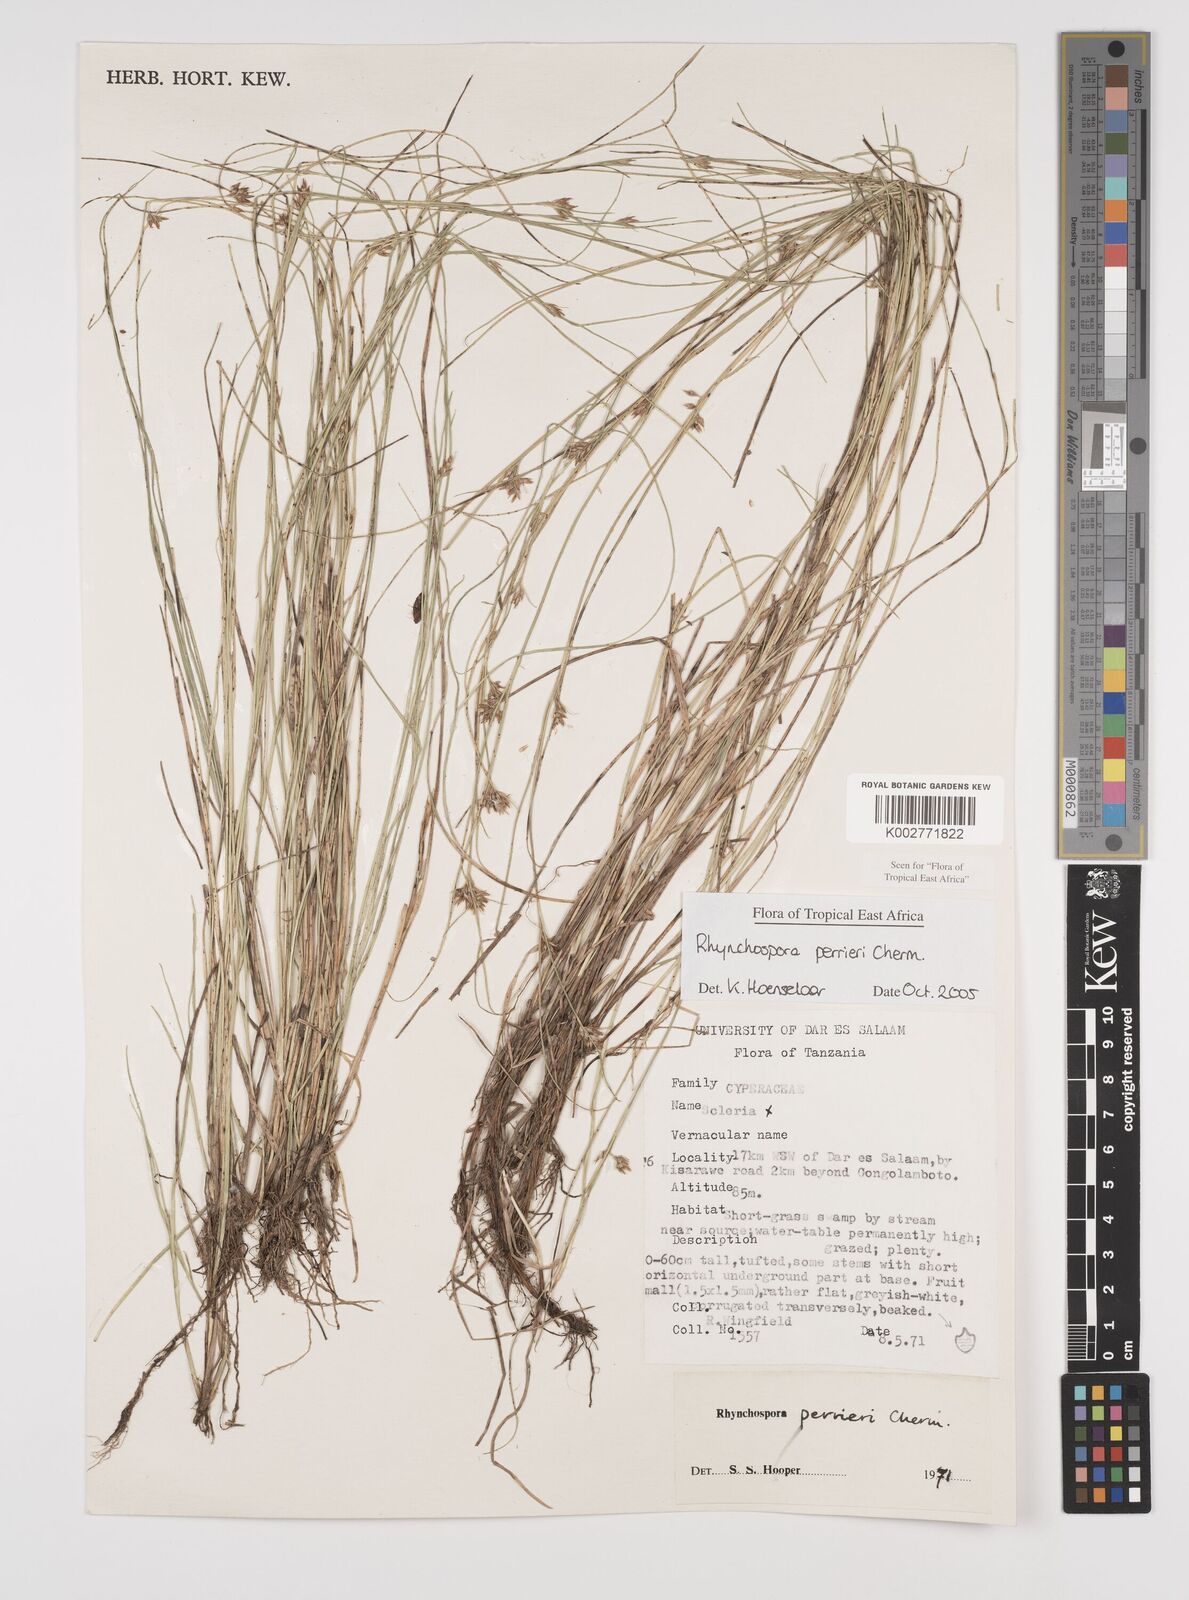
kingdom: Plantae
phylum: Tracheophyta
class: Liliopsida
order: Poales
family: Cyperaceae
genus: Rhynchospora
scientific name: Rhynchospora perrieri
